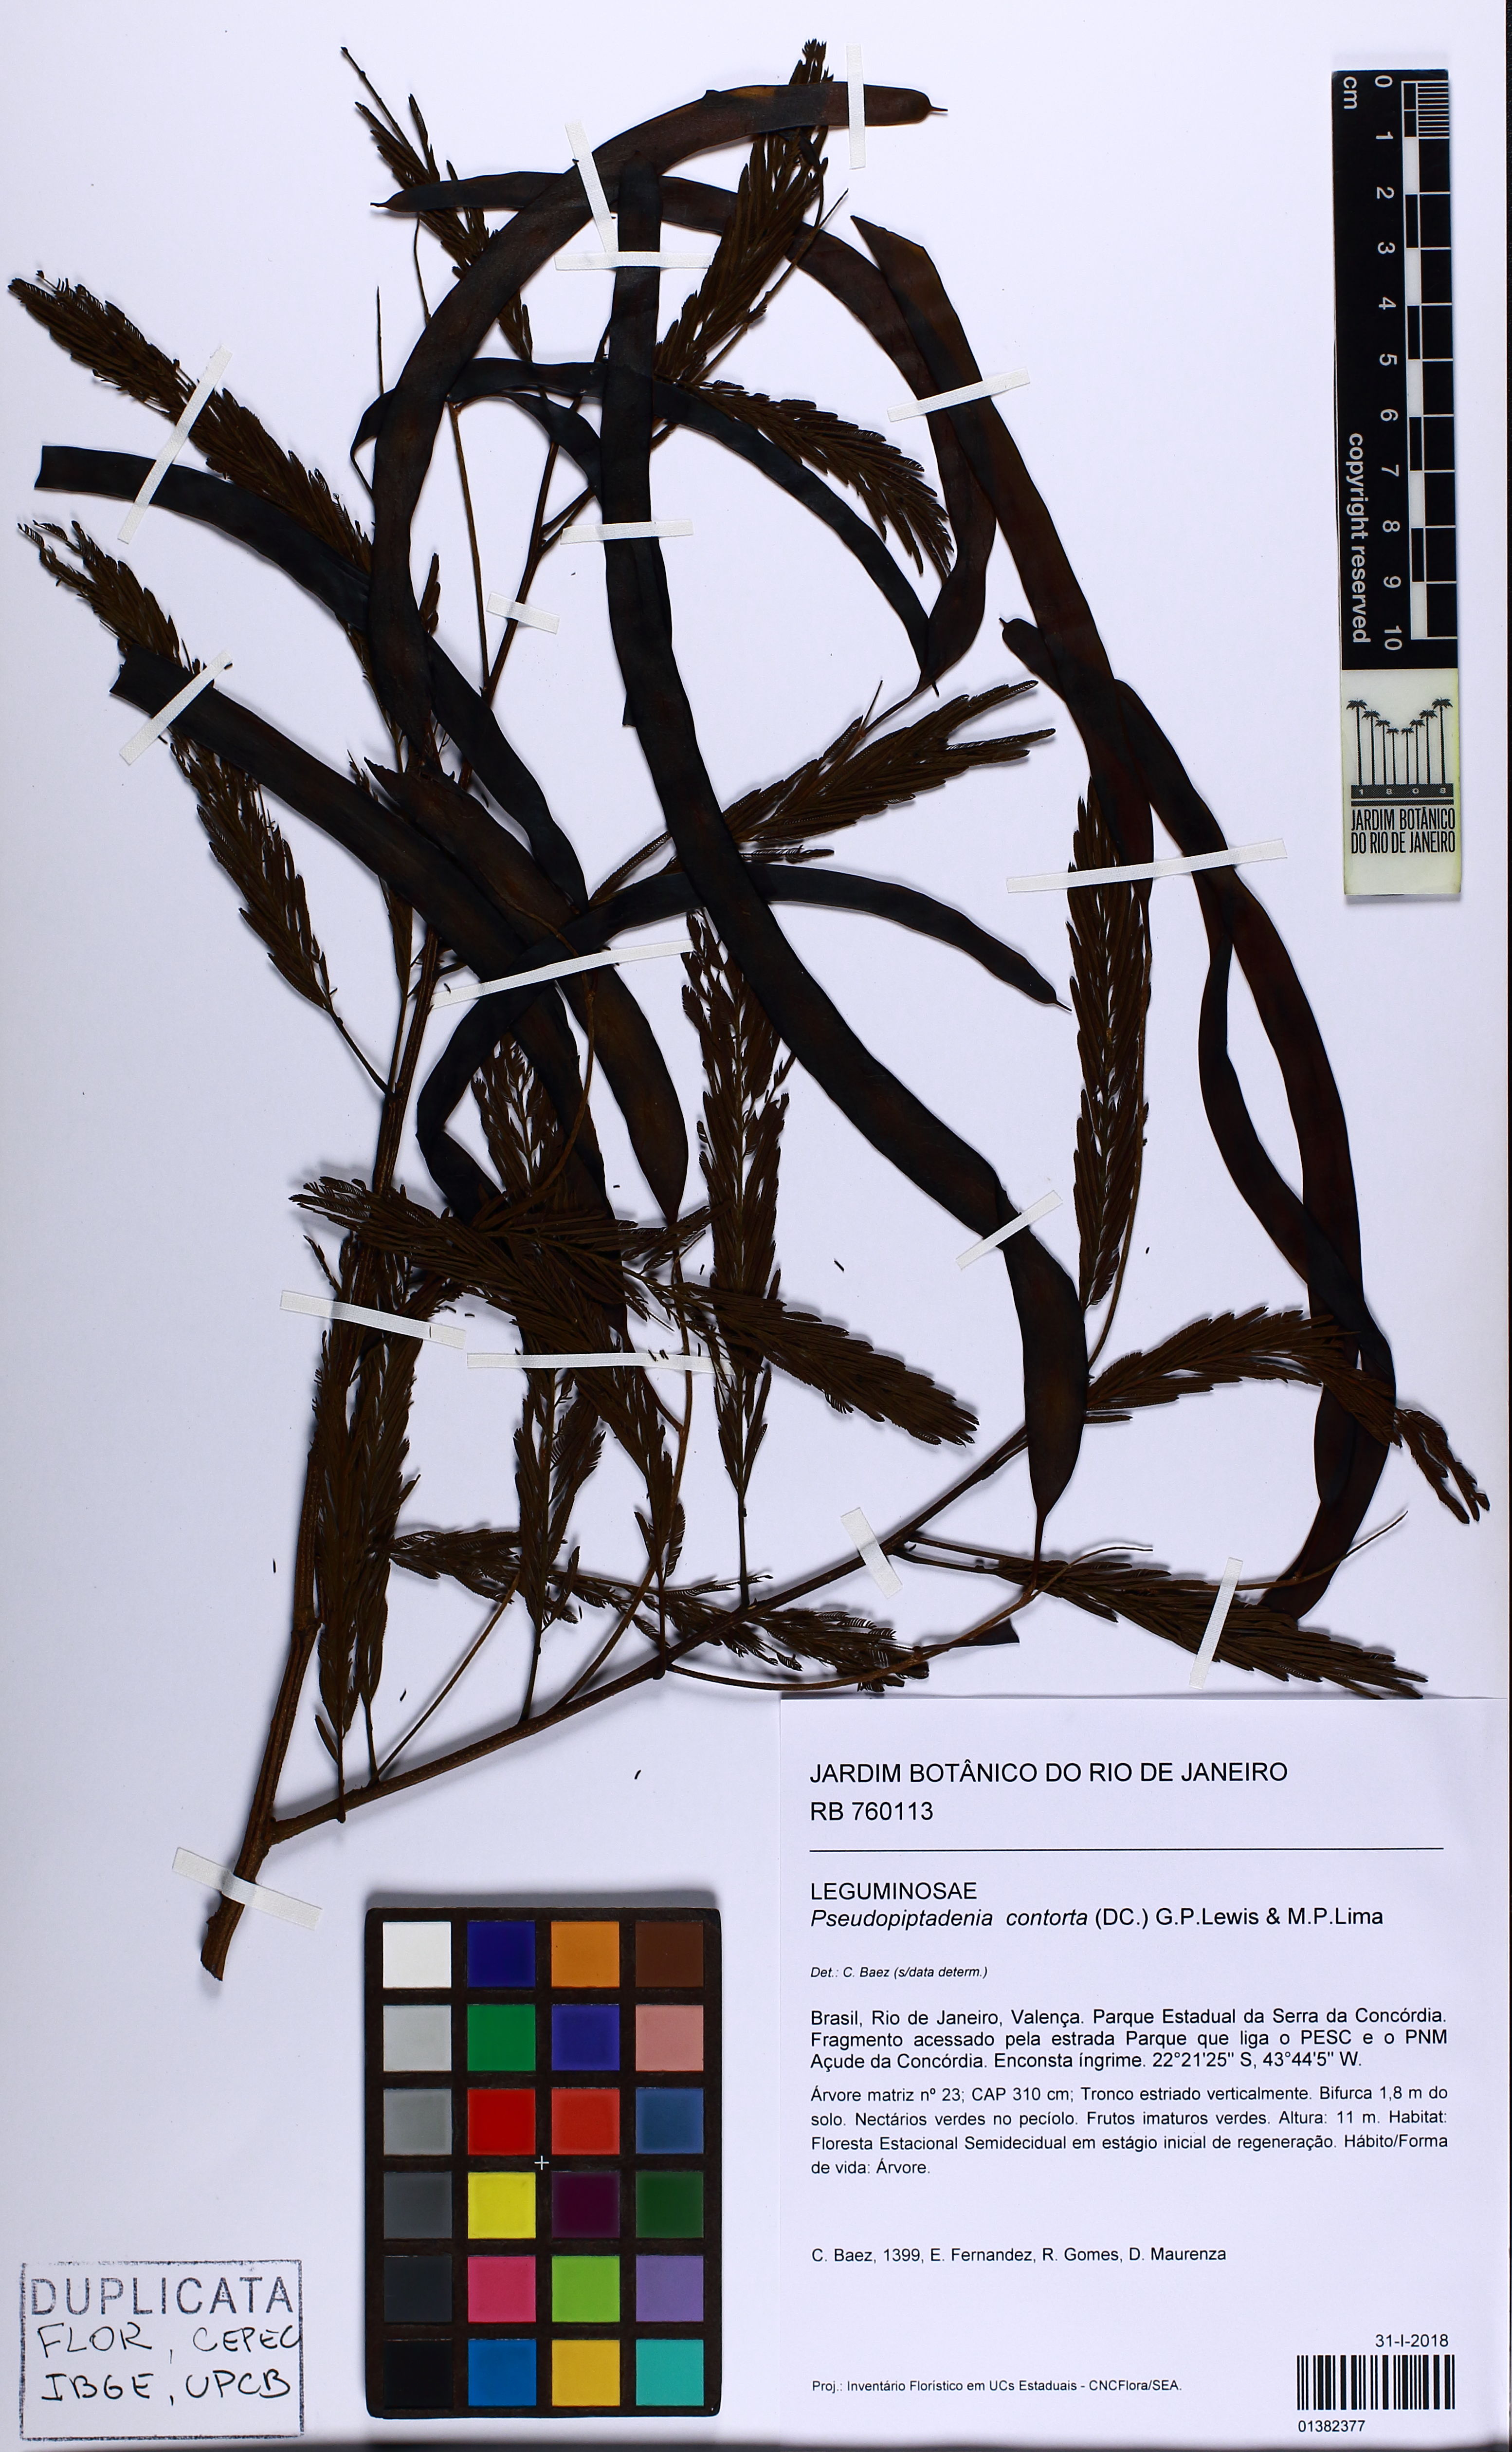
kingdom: Plantae
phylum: Tracheophyta
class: Magnoliopsida
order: Fabales
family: Fabaceae
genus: Pseudopiptadenia
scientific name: Pseudopiptadenia contorta
